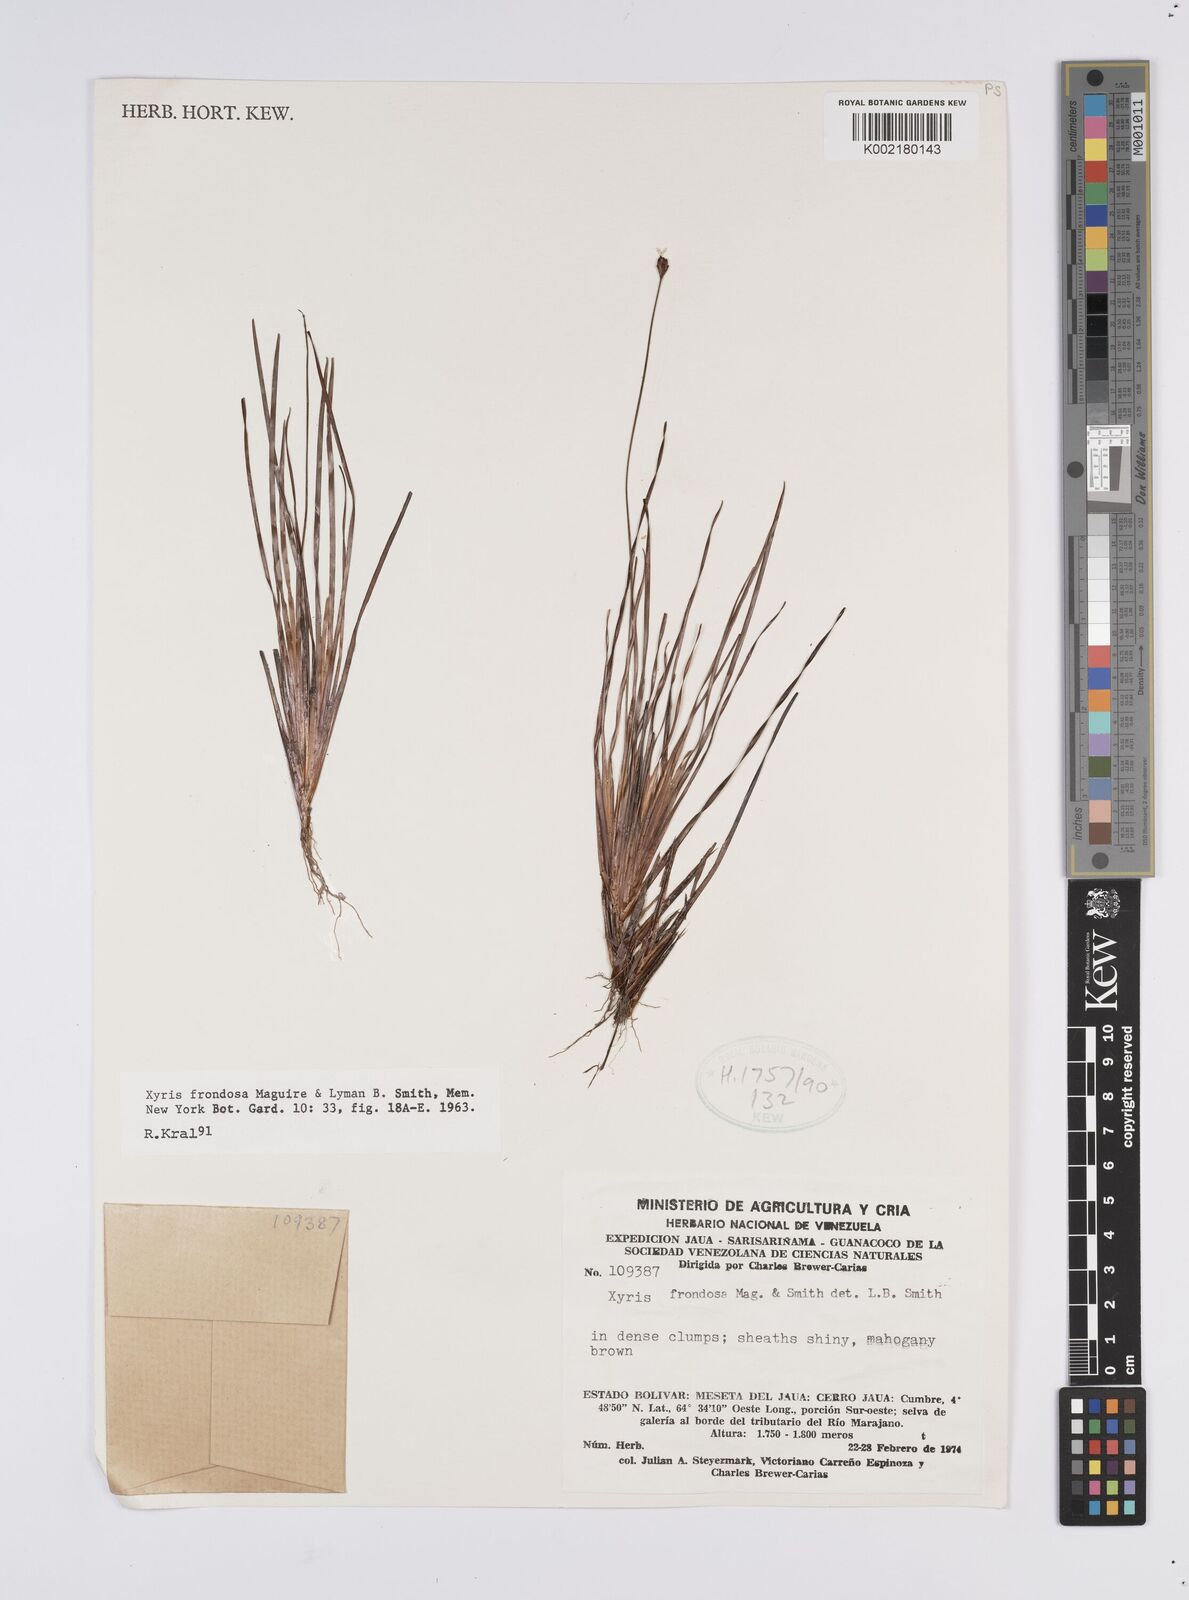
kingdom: Plantae
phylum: Tracheophyta
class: Liliopsida
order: Poales
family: Xyridaceae
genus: Xyris
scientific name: Xyris frondosa
